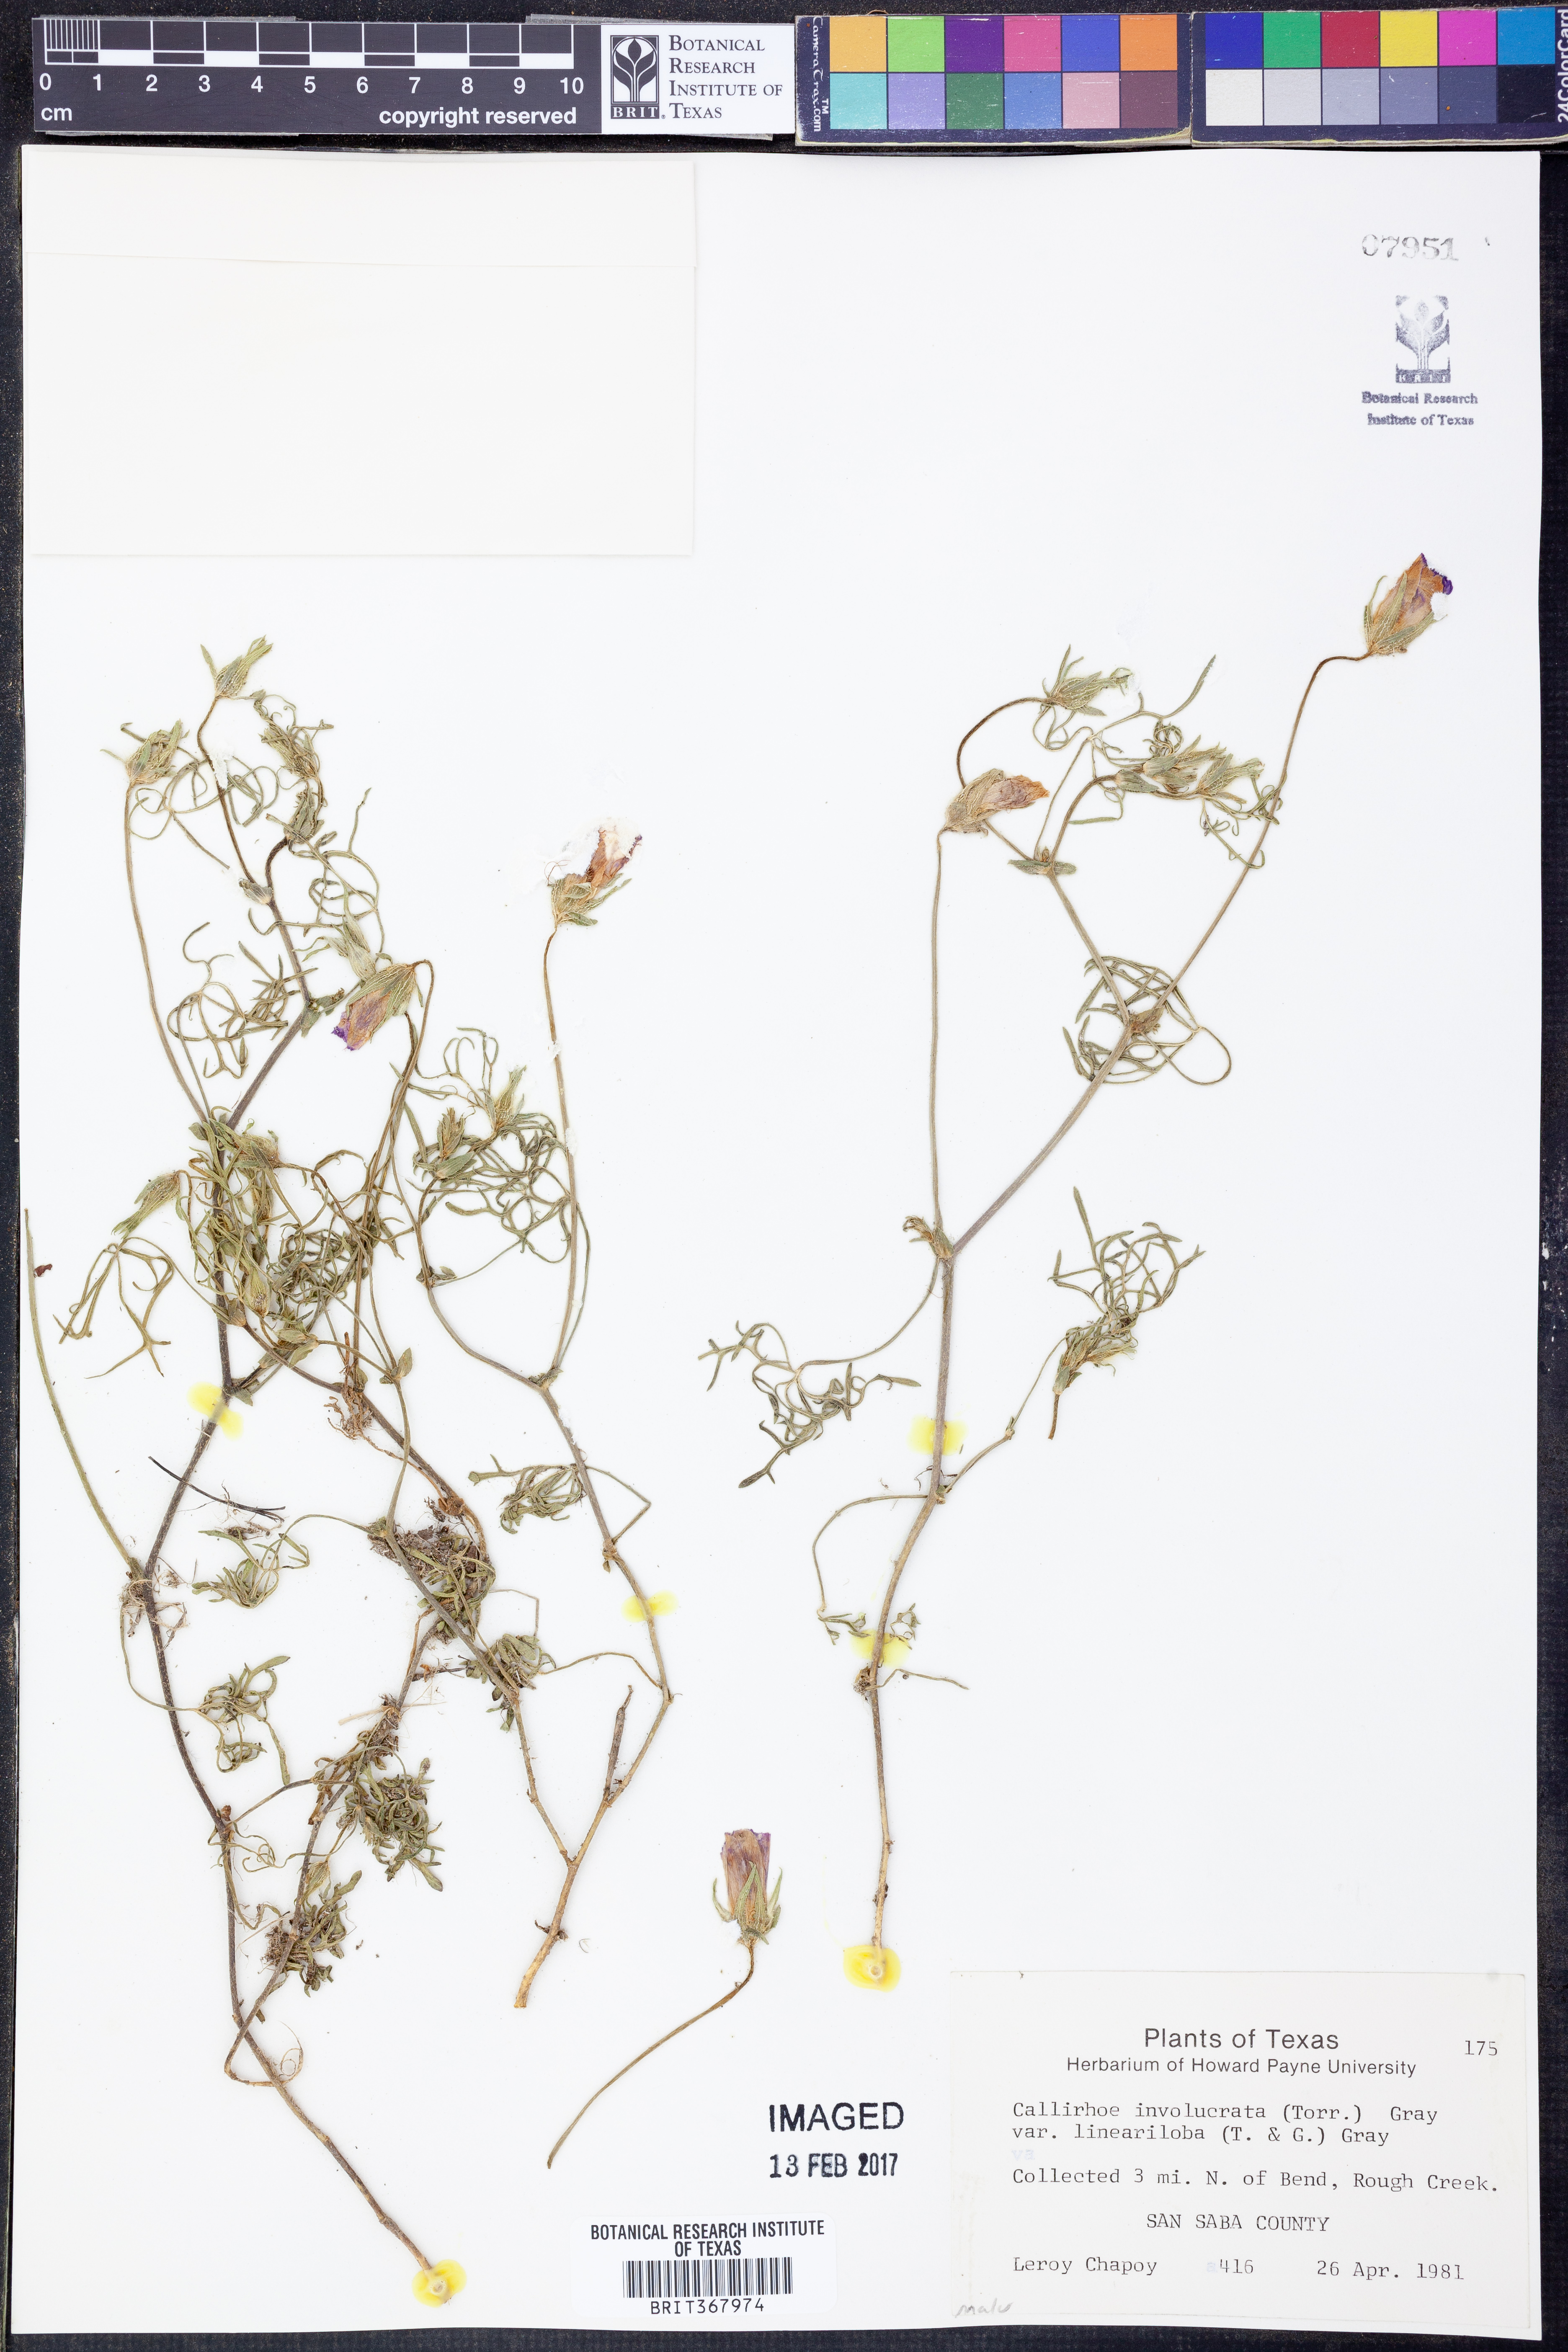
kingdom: Plantae
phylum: Tracheophyta
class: Magnoliopsida
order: Malvales
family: Malvaceae
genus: Callirhoe
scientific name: Callirhoe involucrata
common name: Purple poppy-mallow
